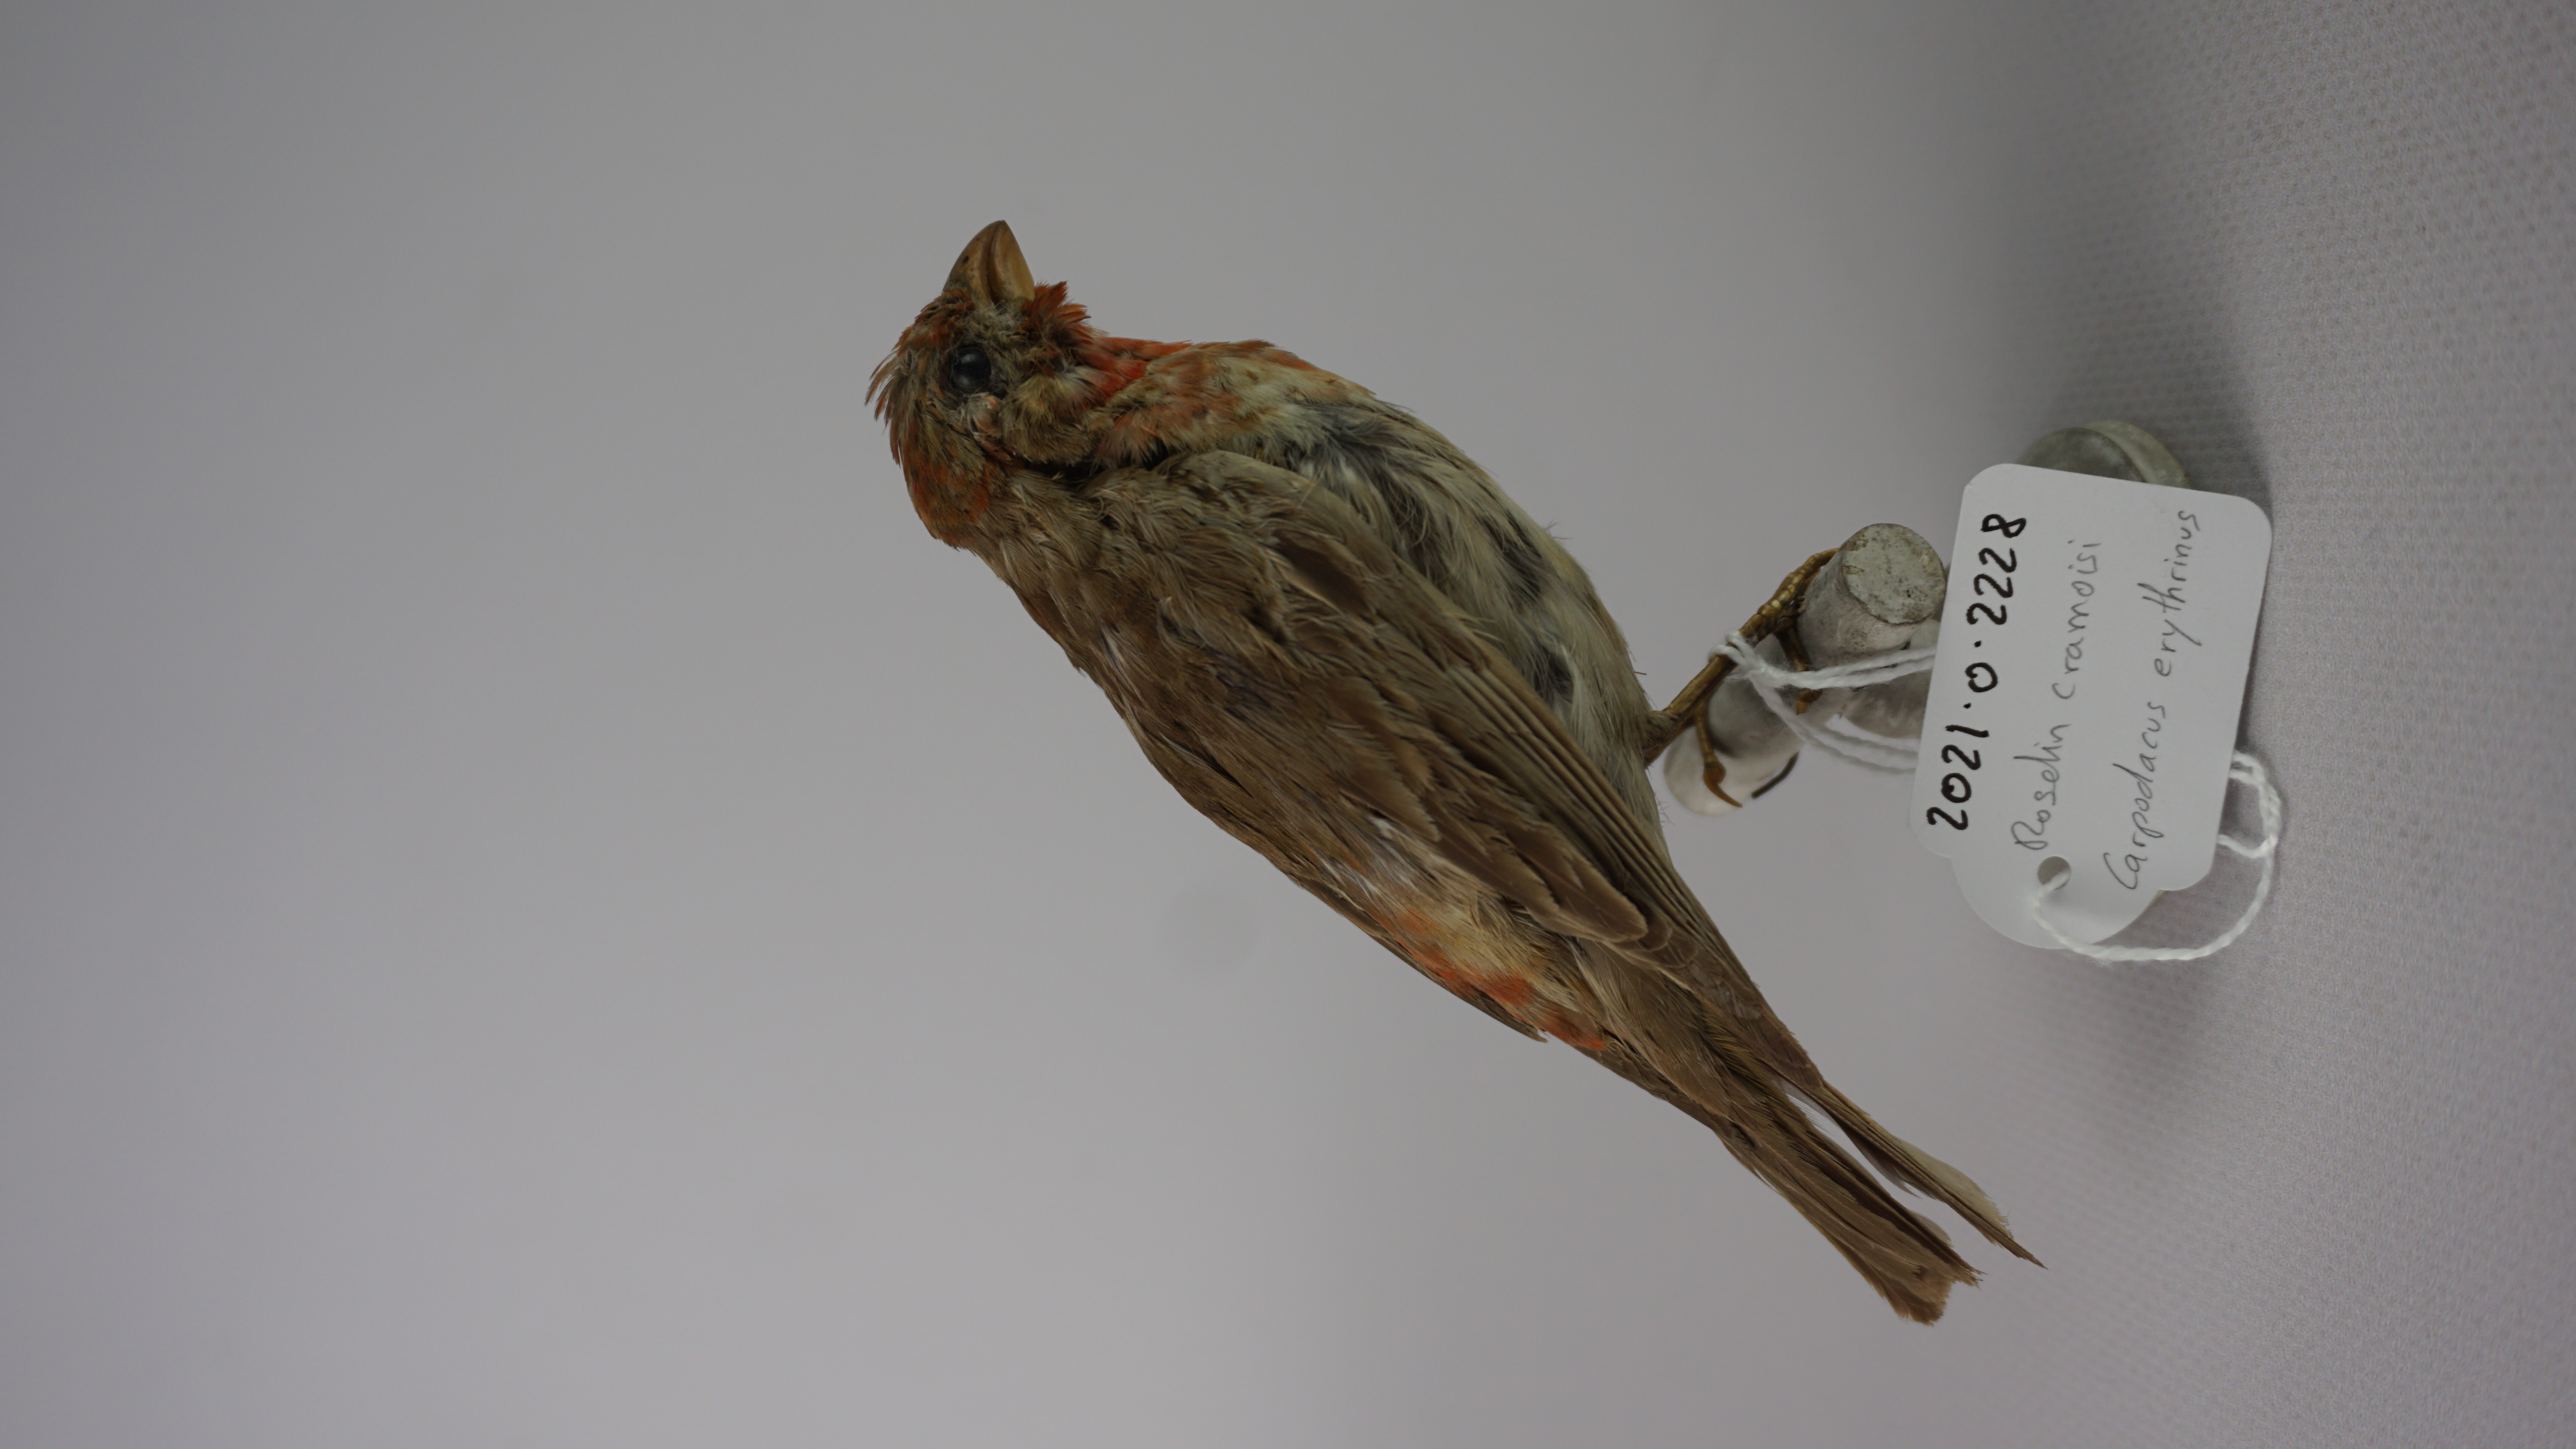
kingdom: Animalia
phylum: Chordata
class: Aves
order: Passeriformes
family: Fringillidae
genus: Carpodacus
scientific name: Carpodacus erythrinus
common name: Common rosefinch
